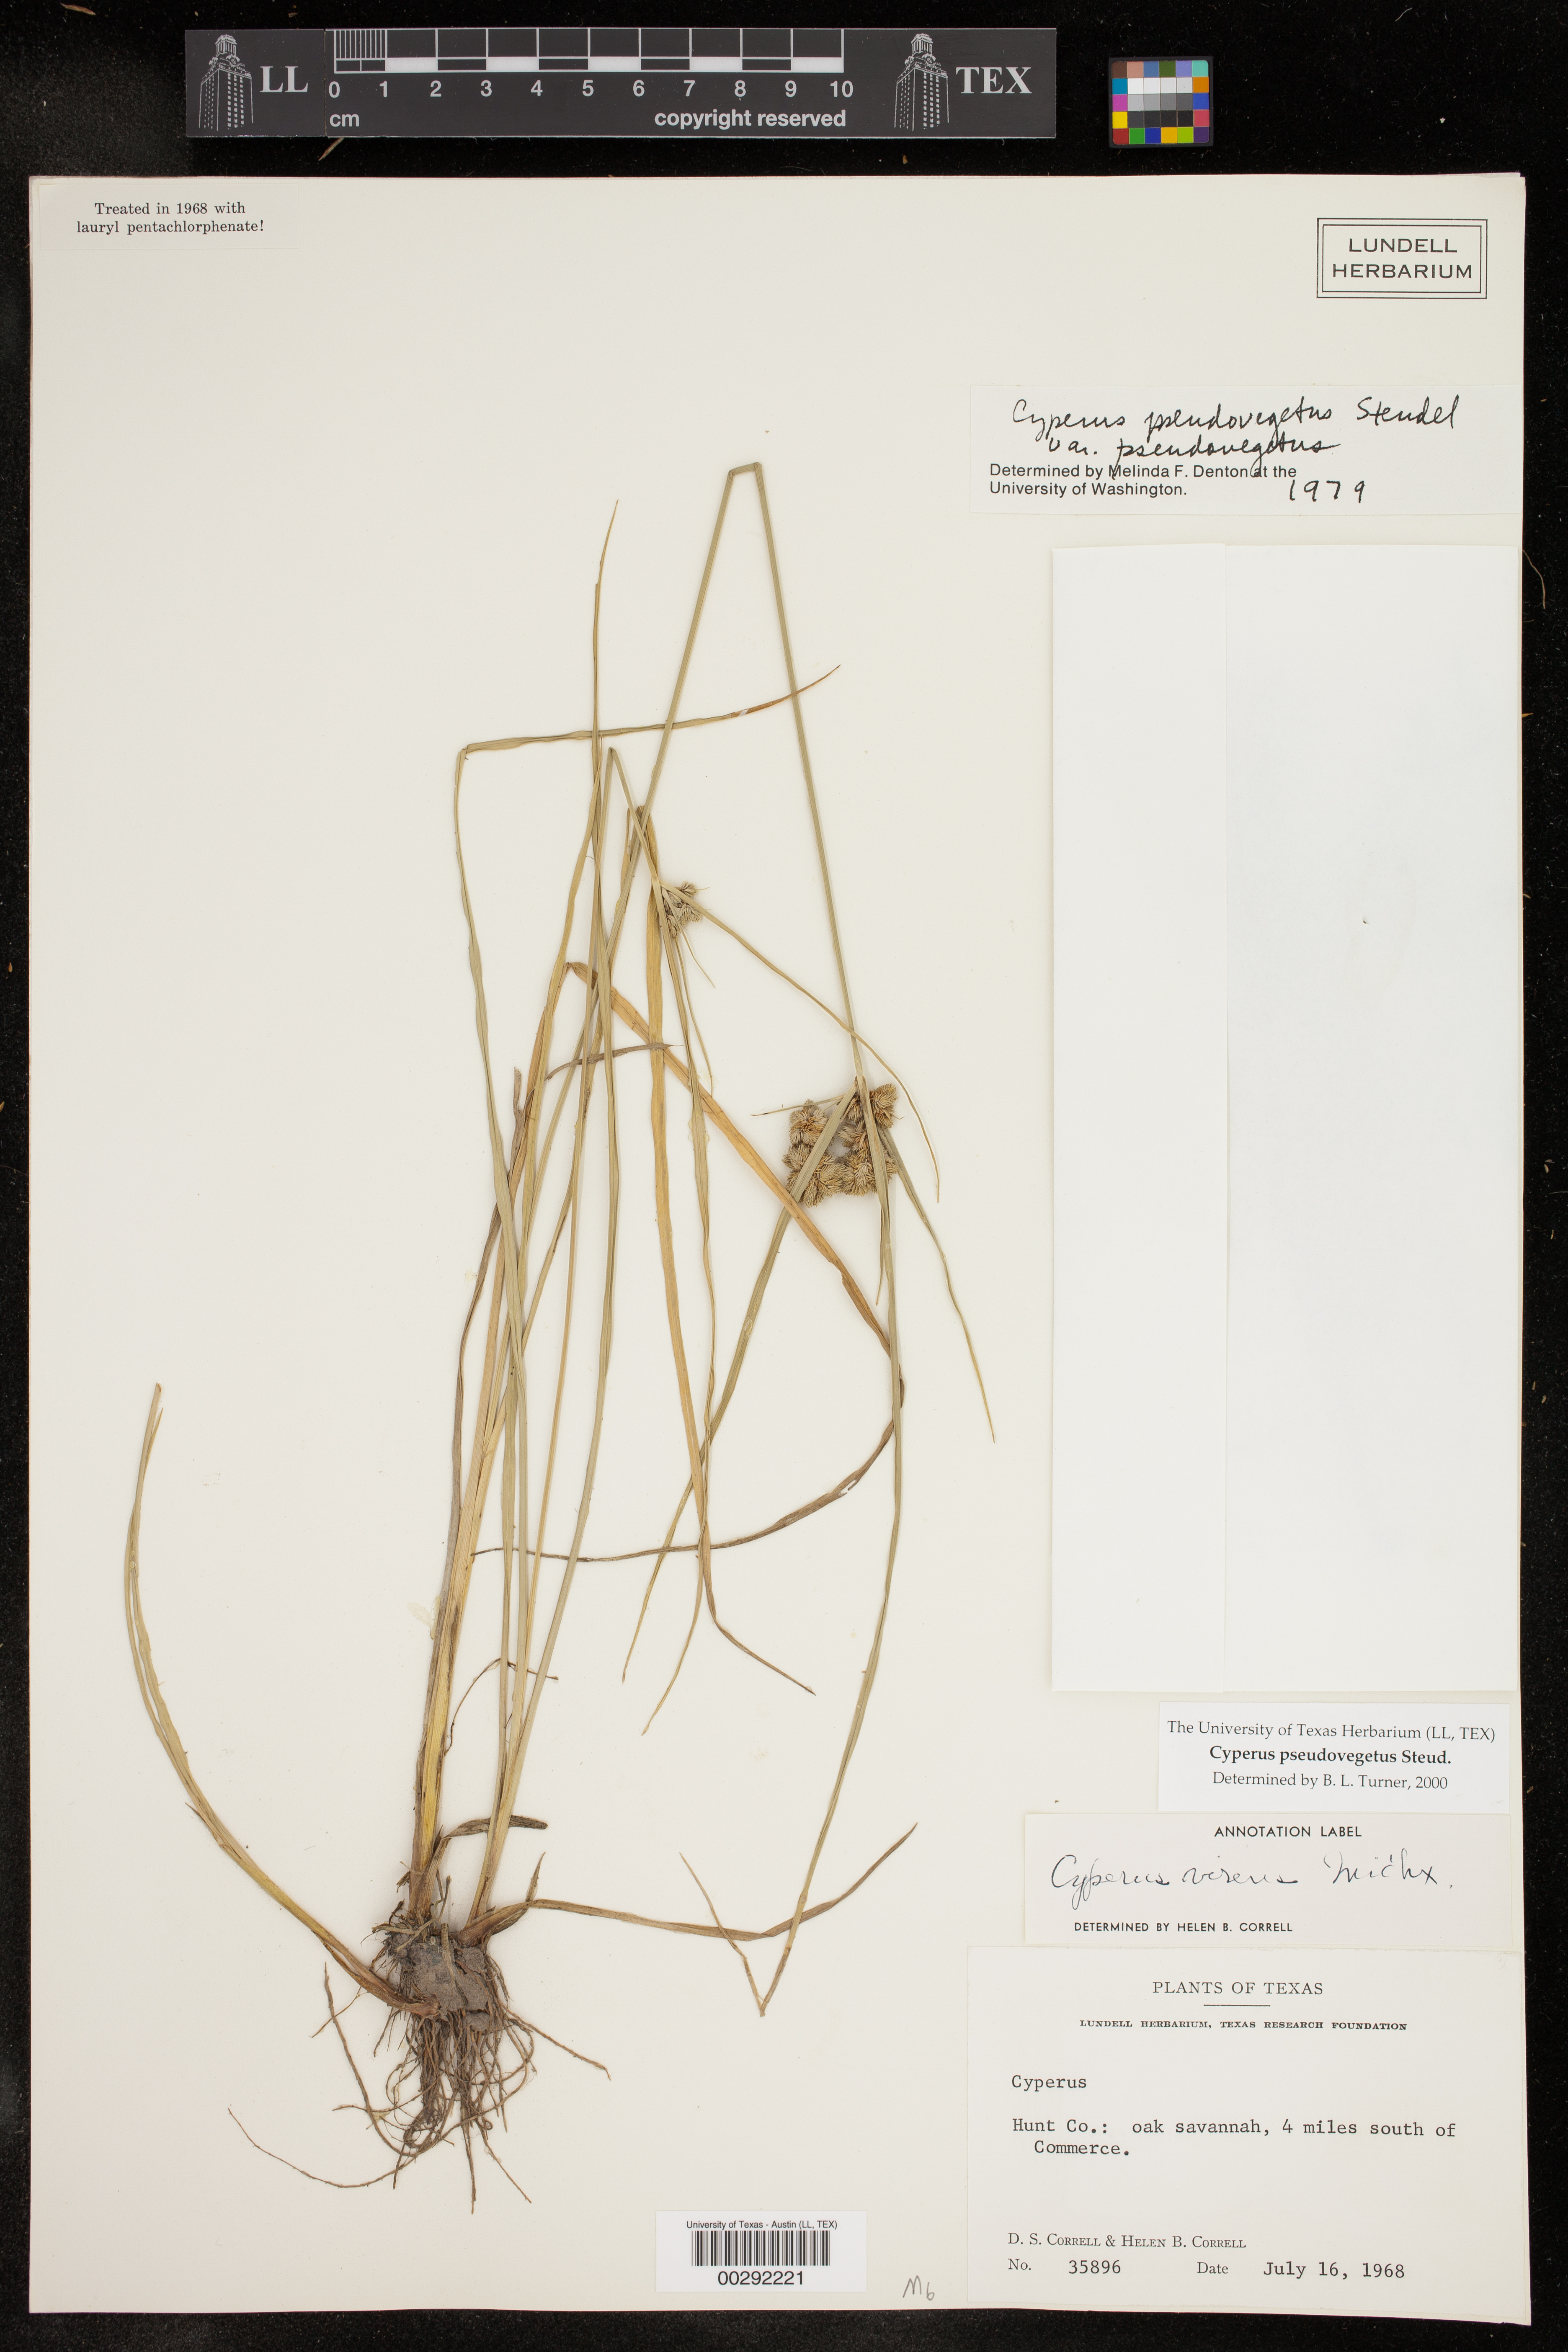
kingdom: Plantae
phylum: Tracheophyta
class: Liliopsida
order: Poales
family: Cyperaceae
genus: Cyperus
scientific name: Cyperus pseudovegetus
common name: Marsh flat sedge
